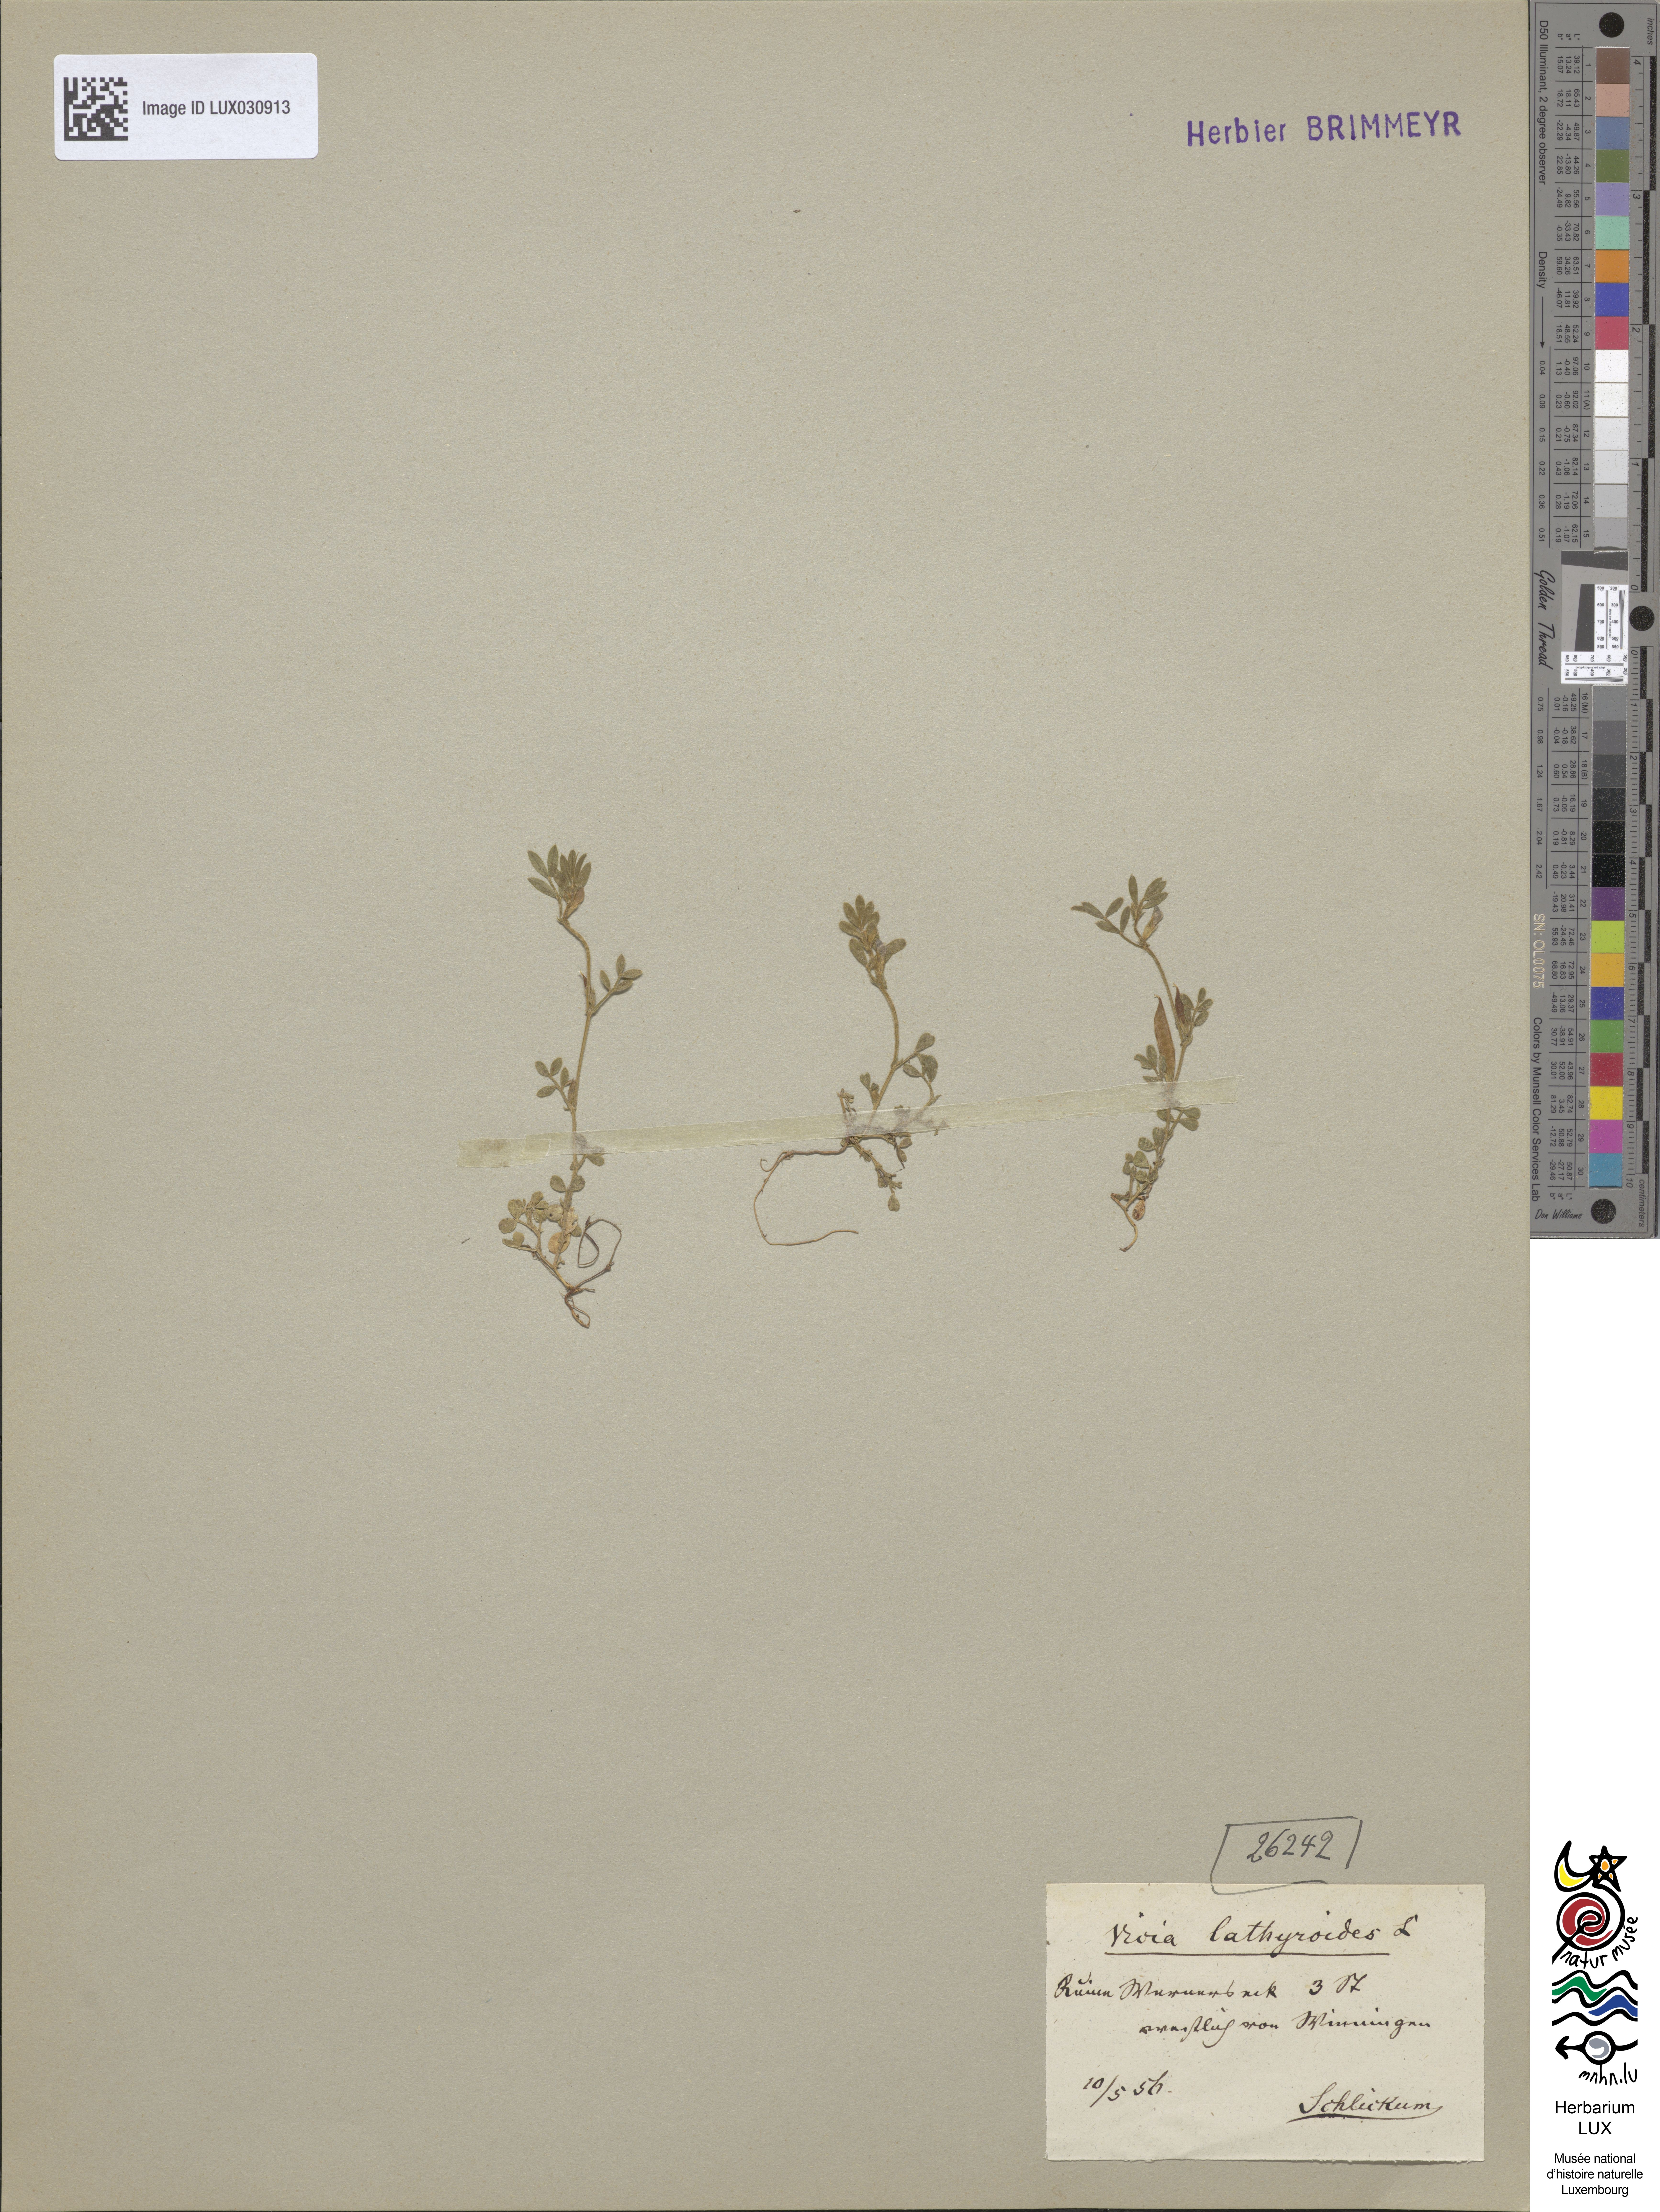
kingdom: Plantae
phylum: Tracheophyta
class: Magnoliopsida
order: Fabales
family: Fabaceae
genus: Vicia
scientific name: Vicia lathyroides
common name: Spring vetch
